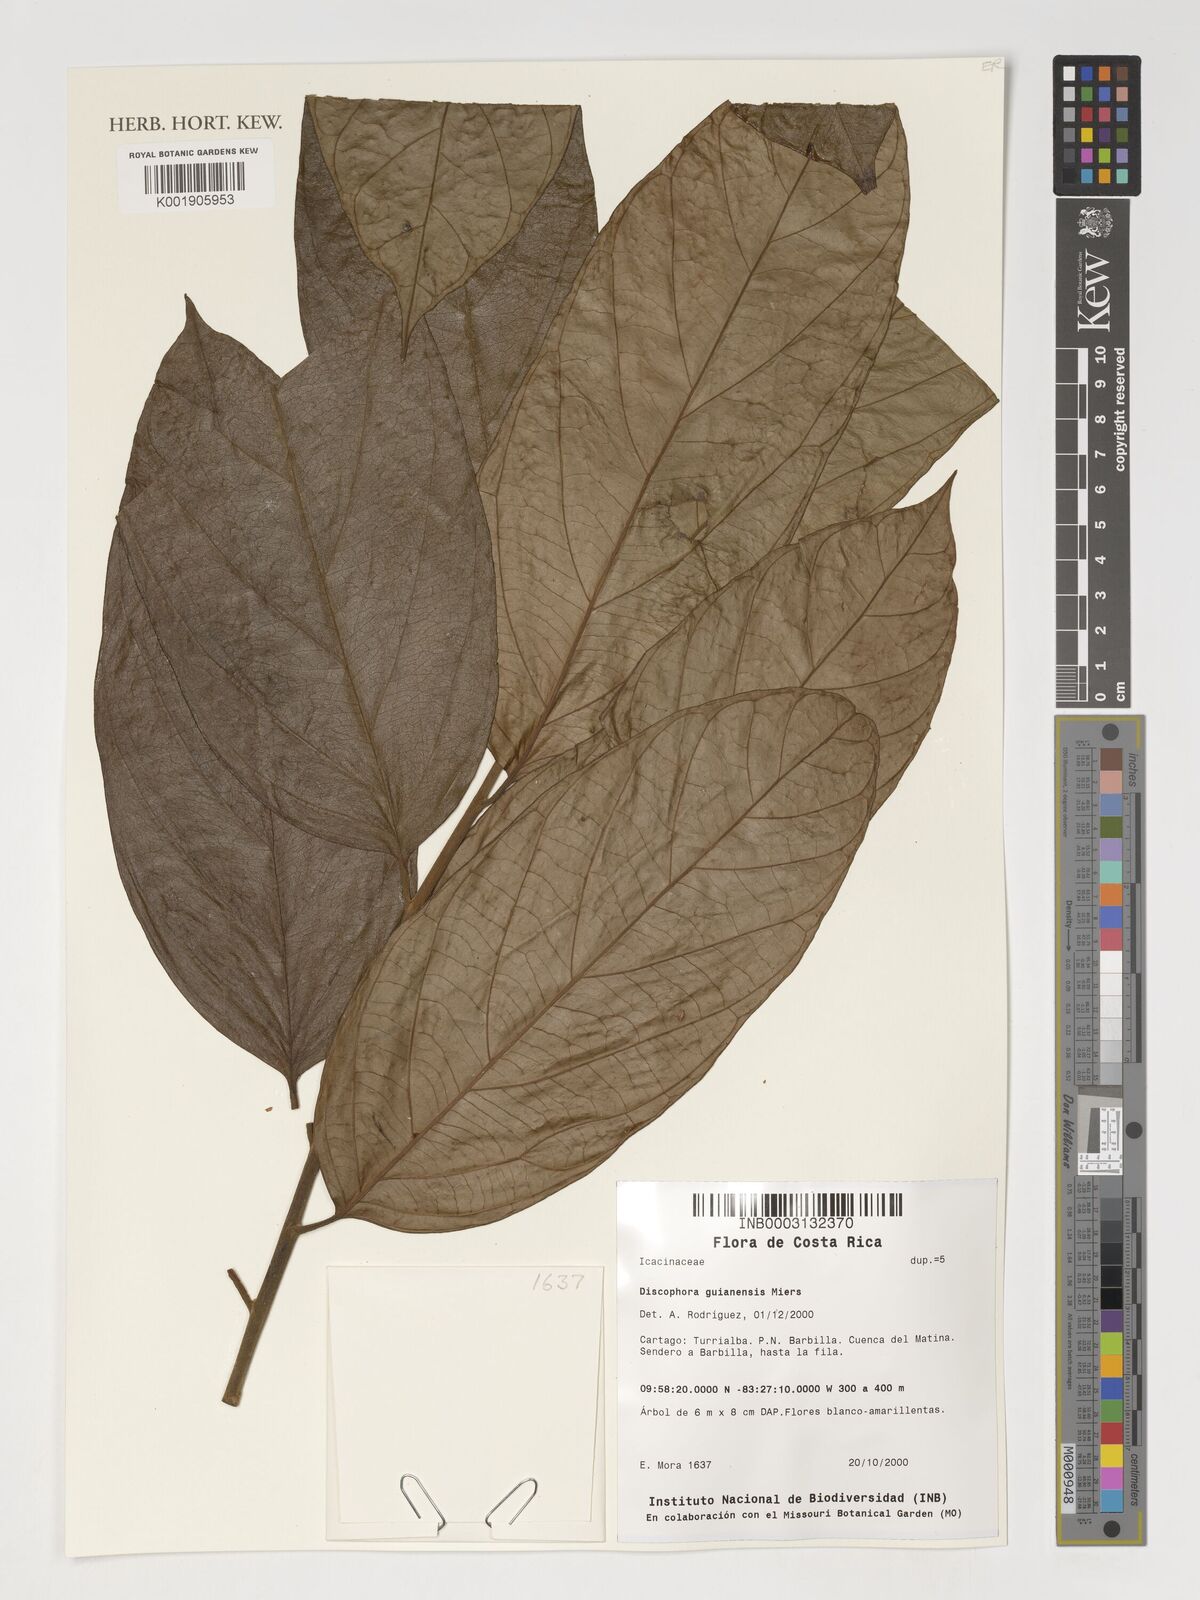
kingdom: Plantae
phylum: Tracheophyta
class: Magnoliopsida
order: Cardiopteridales
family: Stemonuraceae
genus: Discophora
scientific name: Discophora guianensis
